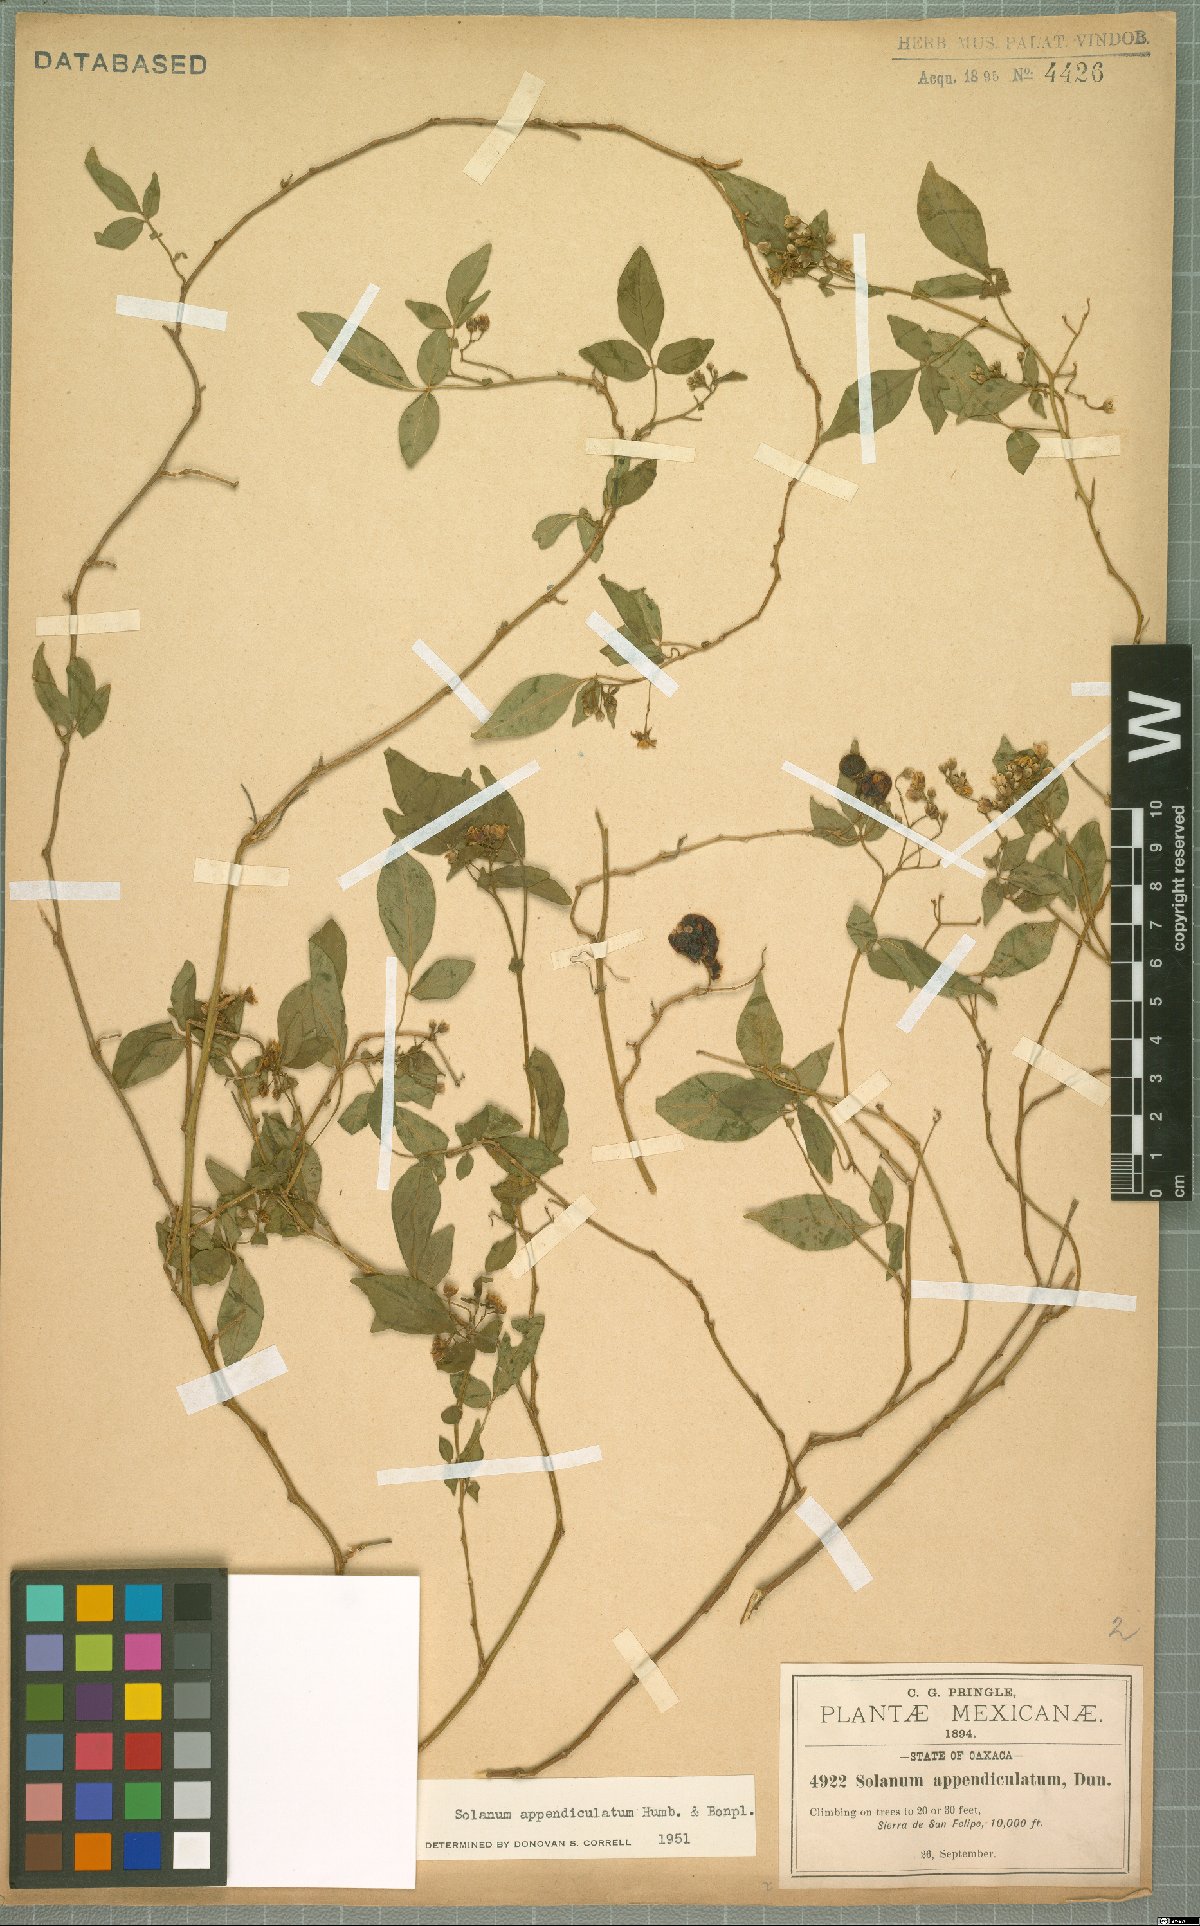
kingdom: Plantae
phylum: Tracheophyta
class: Magnoliopsida
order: Solanales
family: Solanaceae
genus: Solanum
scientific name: Solanum appendiculatum
